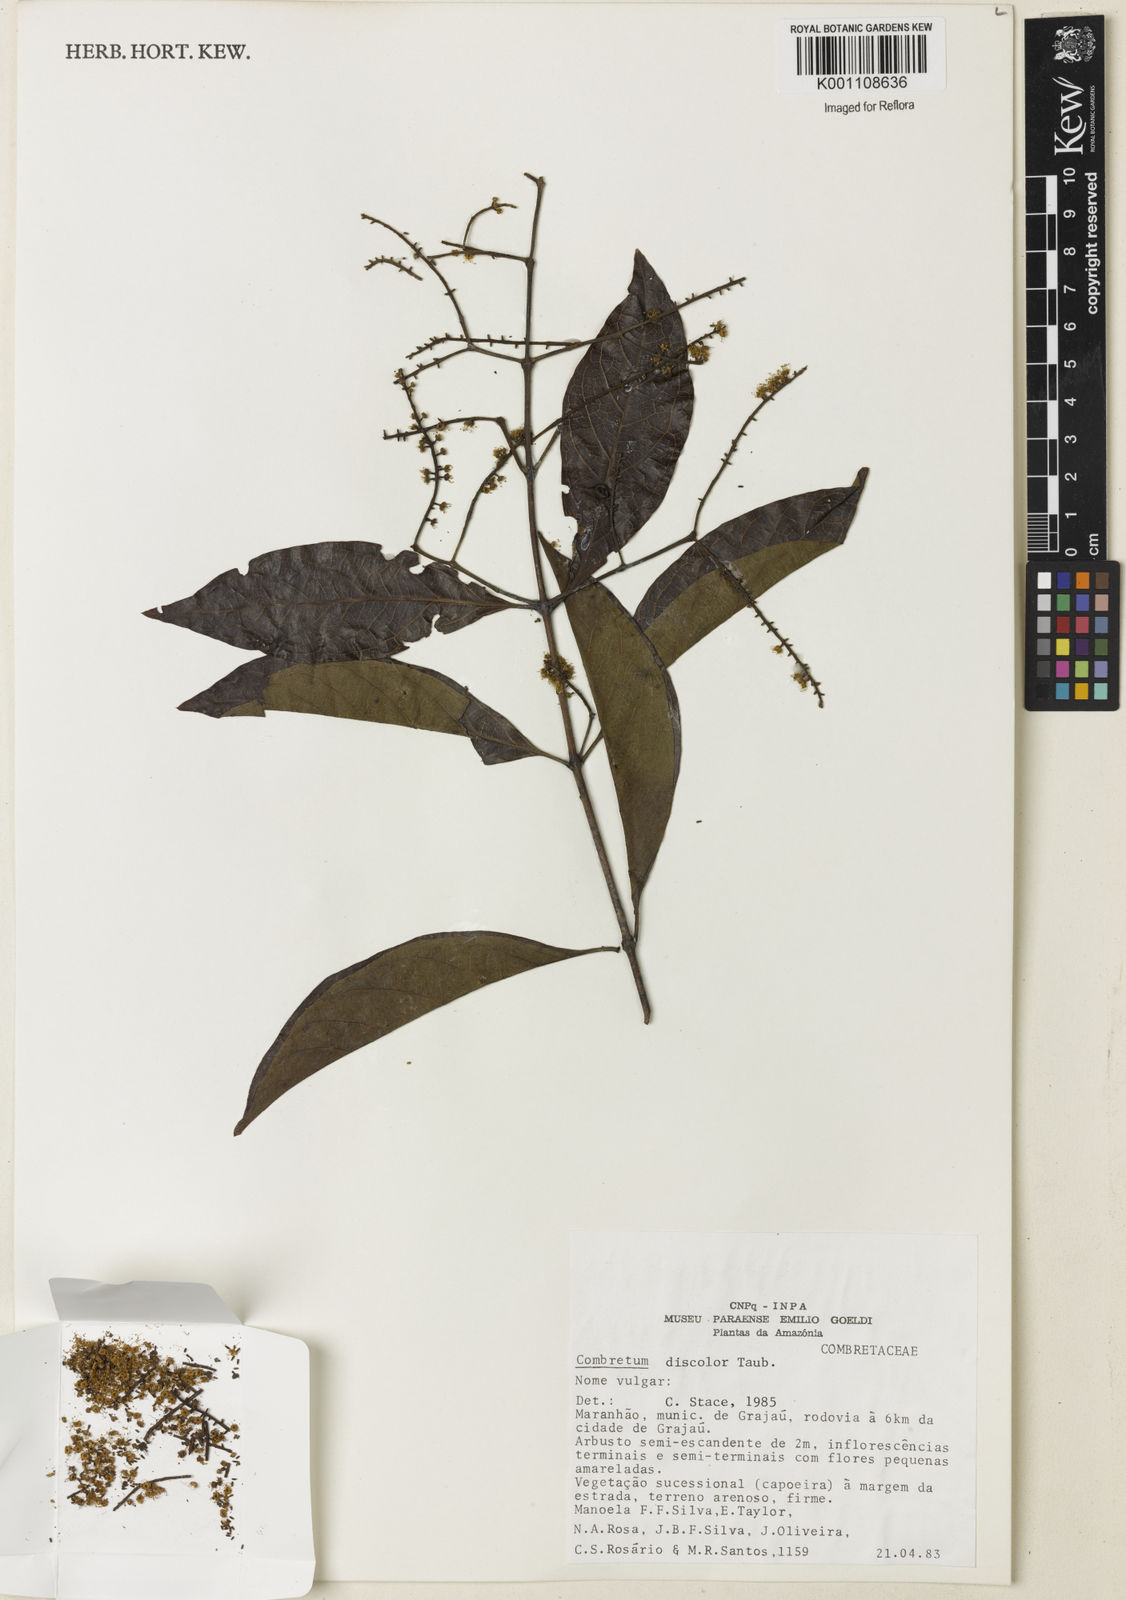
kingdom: Plantae
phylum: Tracheophyta
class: Magnoliopsida
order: Myrtales
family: Combretaceae
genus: Combretum
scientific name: Combretum discolor
